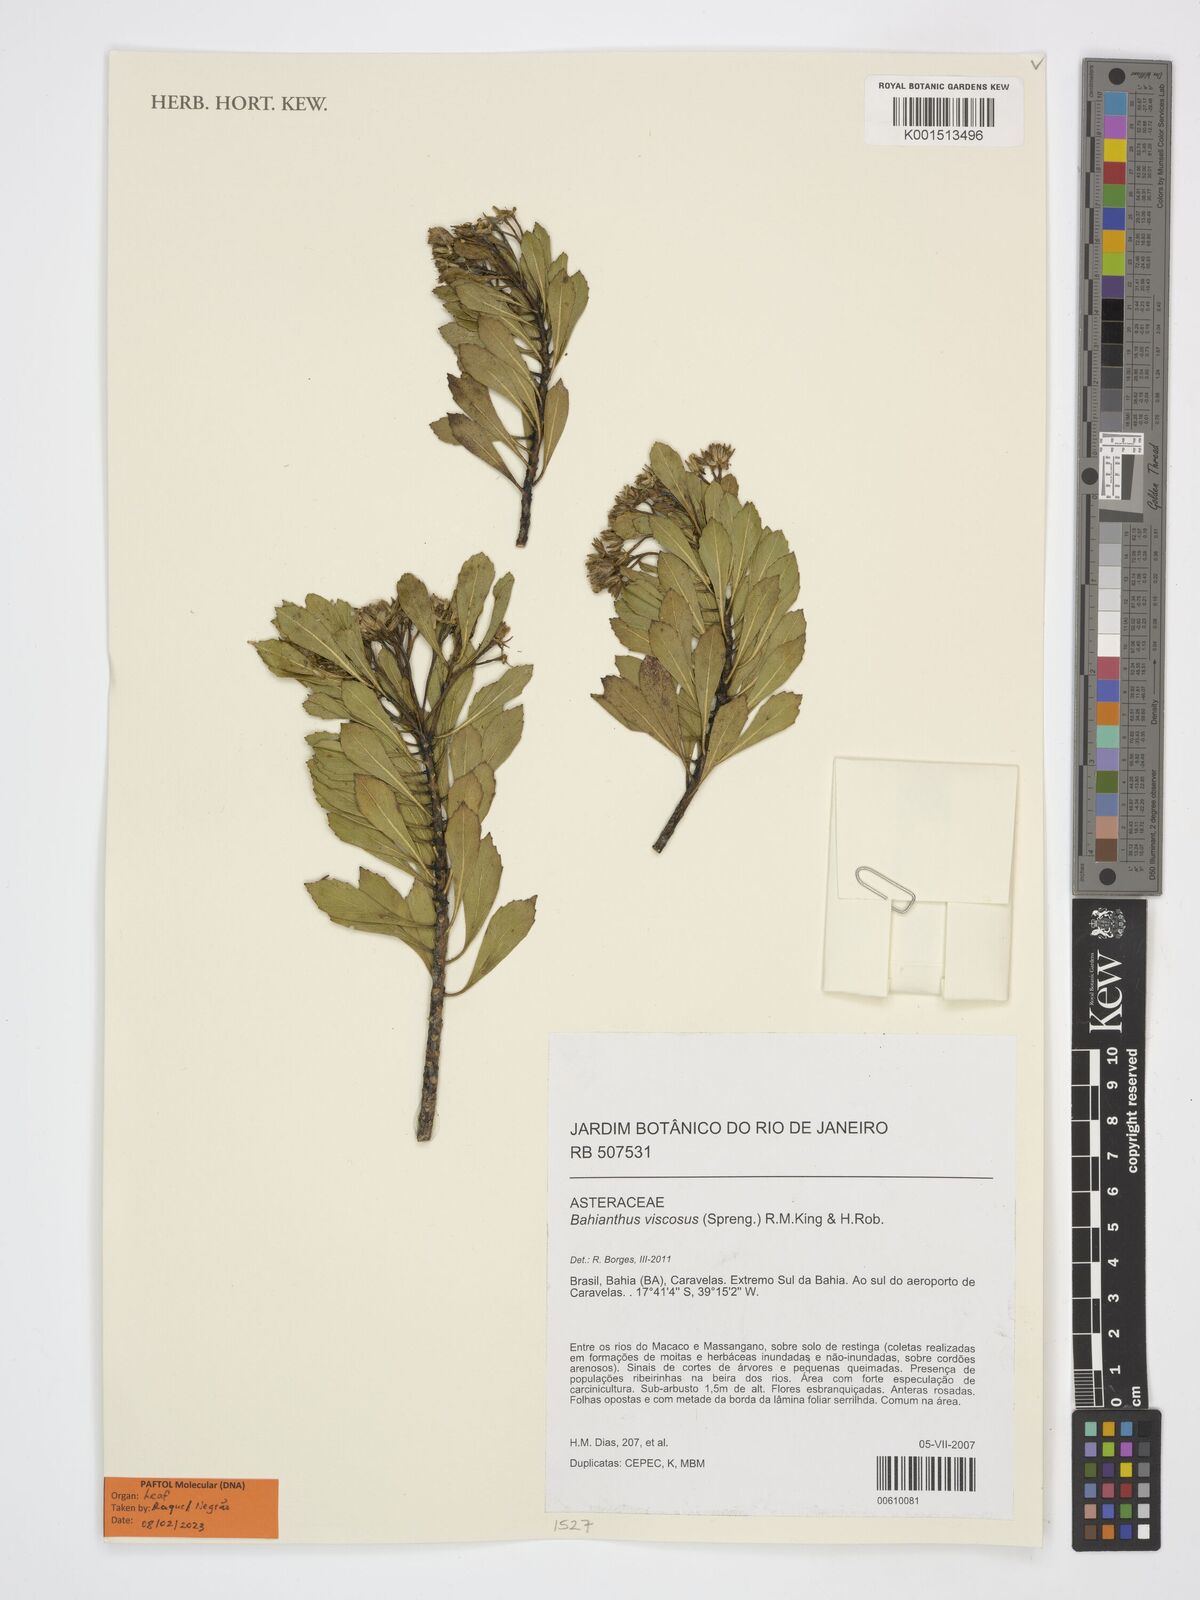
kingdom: Plantae
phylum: Tracheophyta
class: Magnoliopsida
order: Asterales
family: Asteraceae
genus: Bahianthus
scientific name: Bahianthus viscosus
